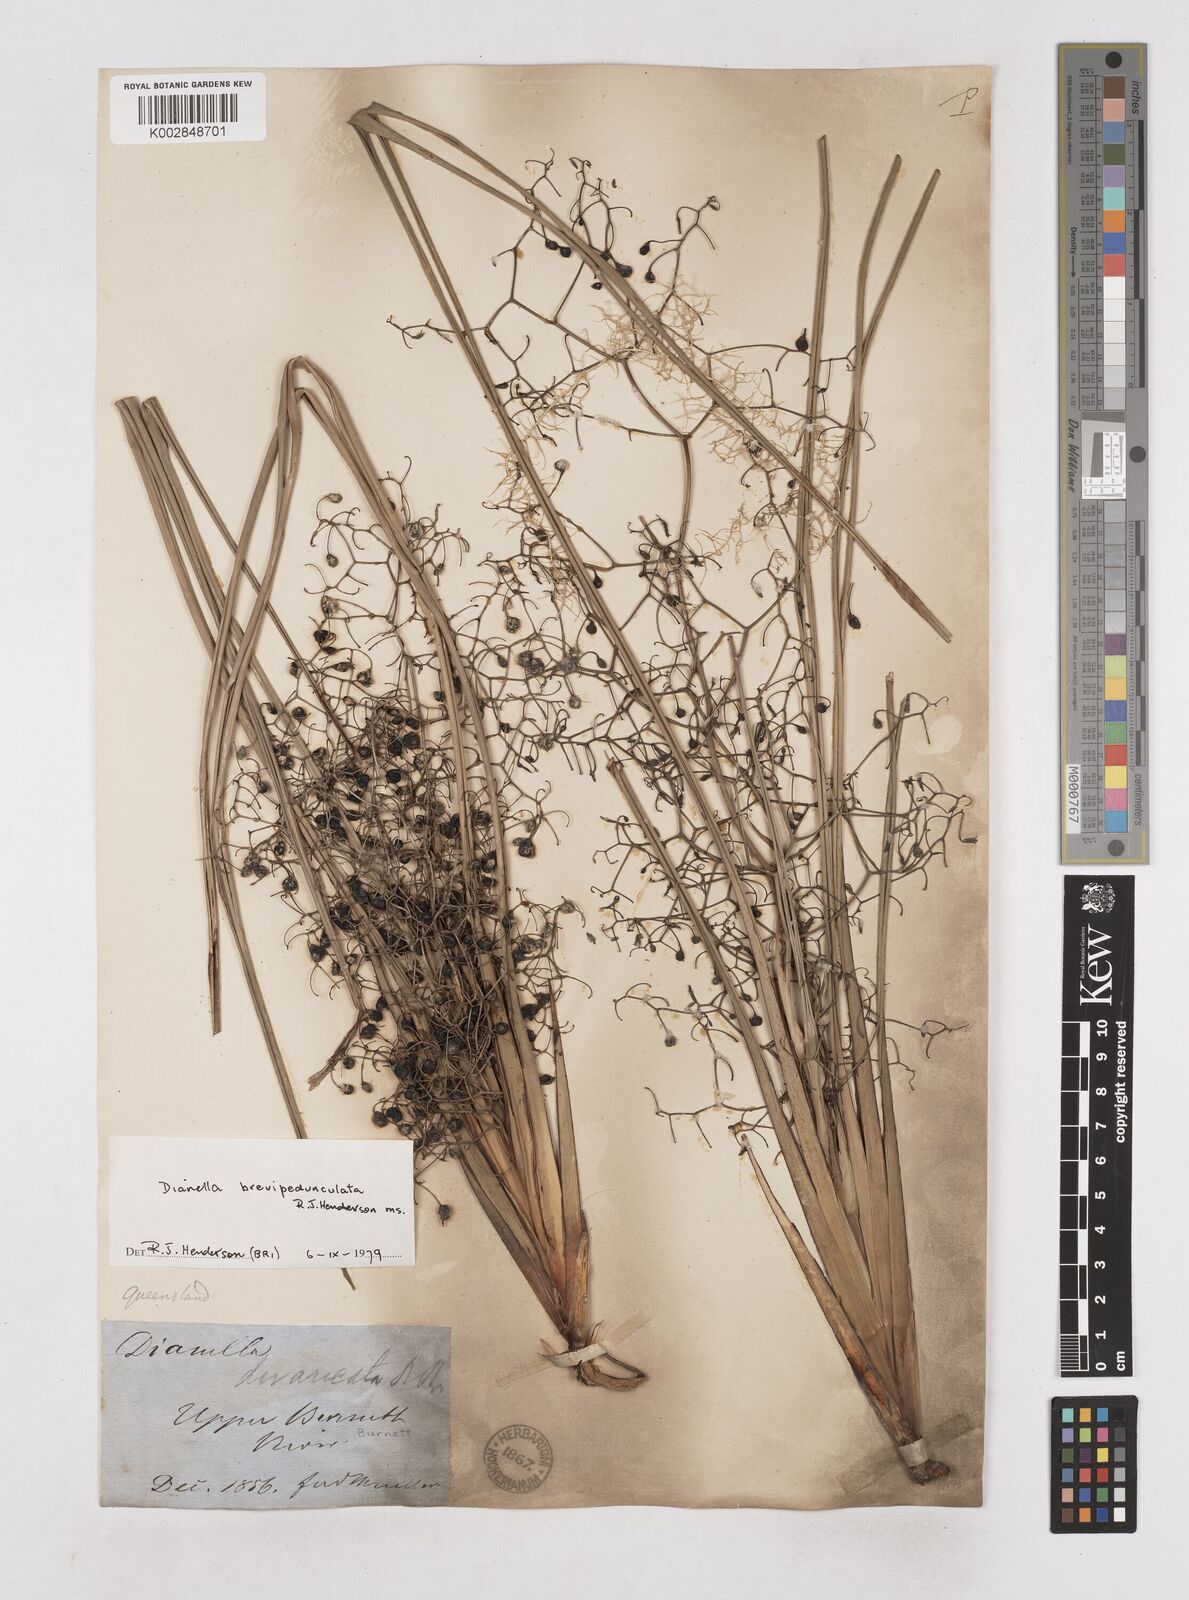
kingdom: Plantae
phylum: Tracheophyta
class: Liliopsida
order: Asparagales
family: Asphodelaceae
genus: Dianella
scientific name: Dianella brevipedunculata
